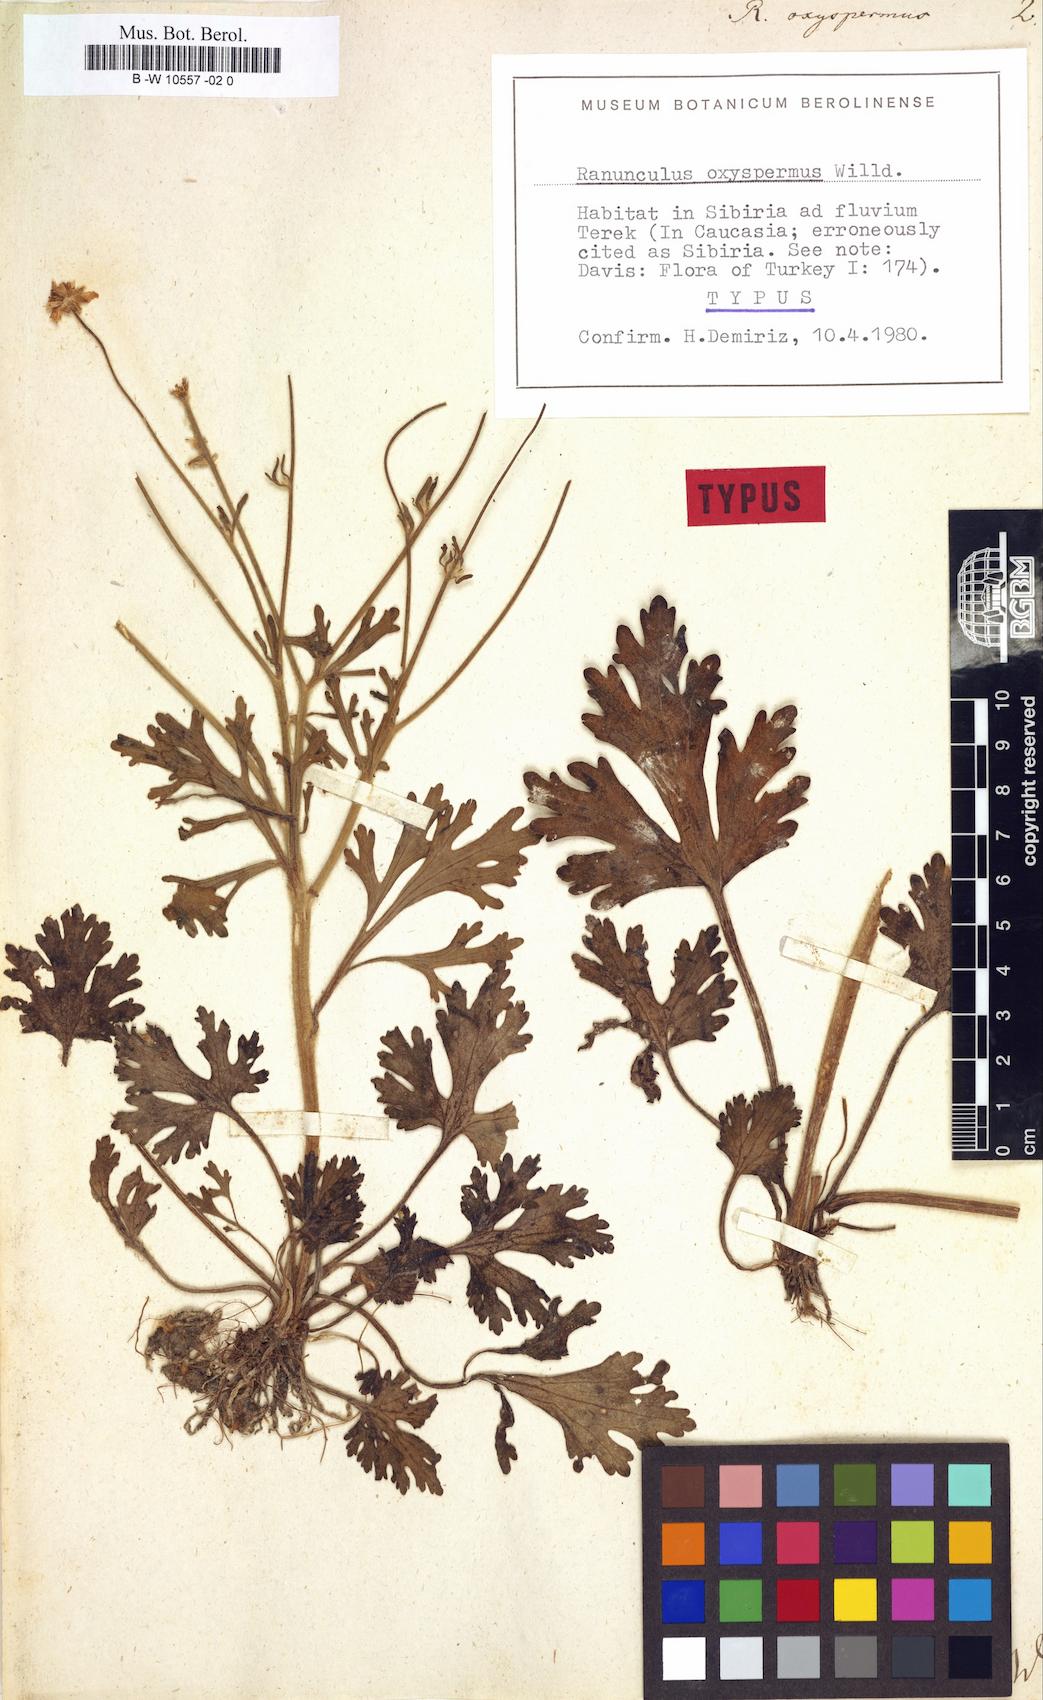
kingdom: Plantae
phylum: Tracheophyta
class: Magnoliopsida
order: Ranunculales
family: Ranunculaceae
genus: Ranunculus
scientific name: Ranunculus oxyspermus
